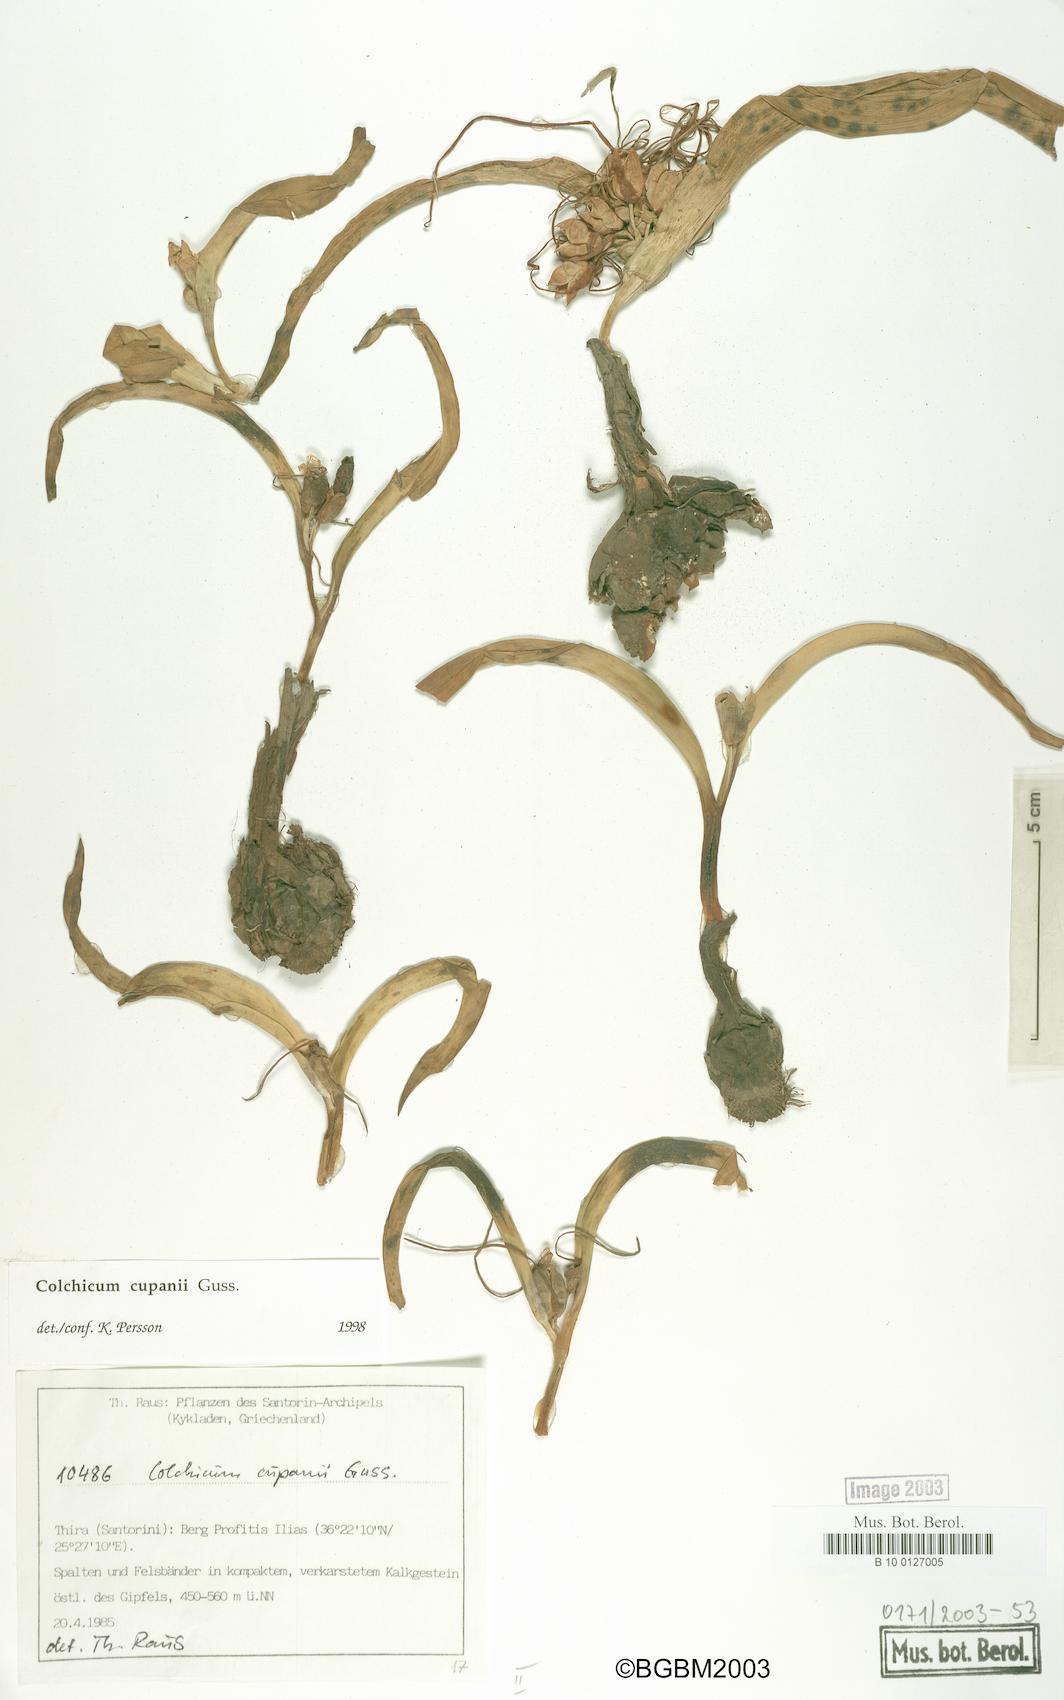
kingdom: Plantae
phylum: Tracheophyta
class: Liliopsida
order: Liliales
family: Colchicaceae
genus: Colchicum
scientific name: Colchicum cupanii
